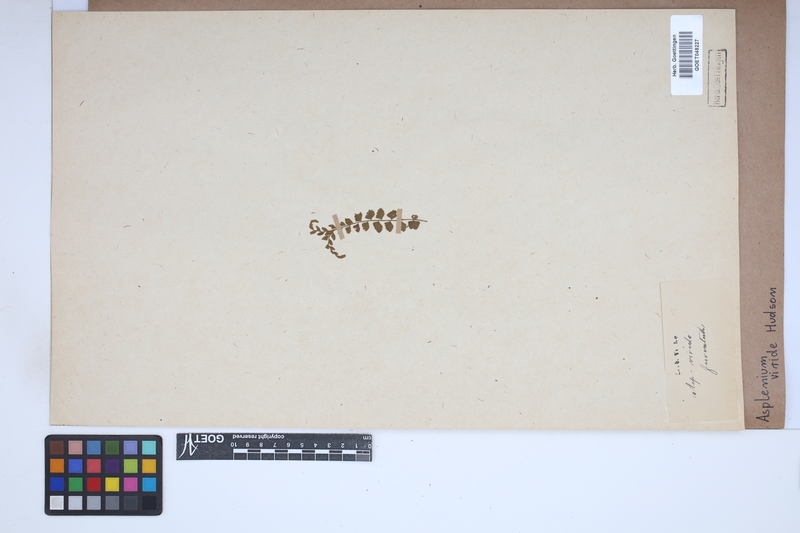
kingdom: Plantae
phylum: Tracheophyta
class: Polypodiopsida
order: Polypodiales
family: Aspleniaceae
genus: Asplenium
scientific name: Asplenium viride
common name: Green spleenwort
